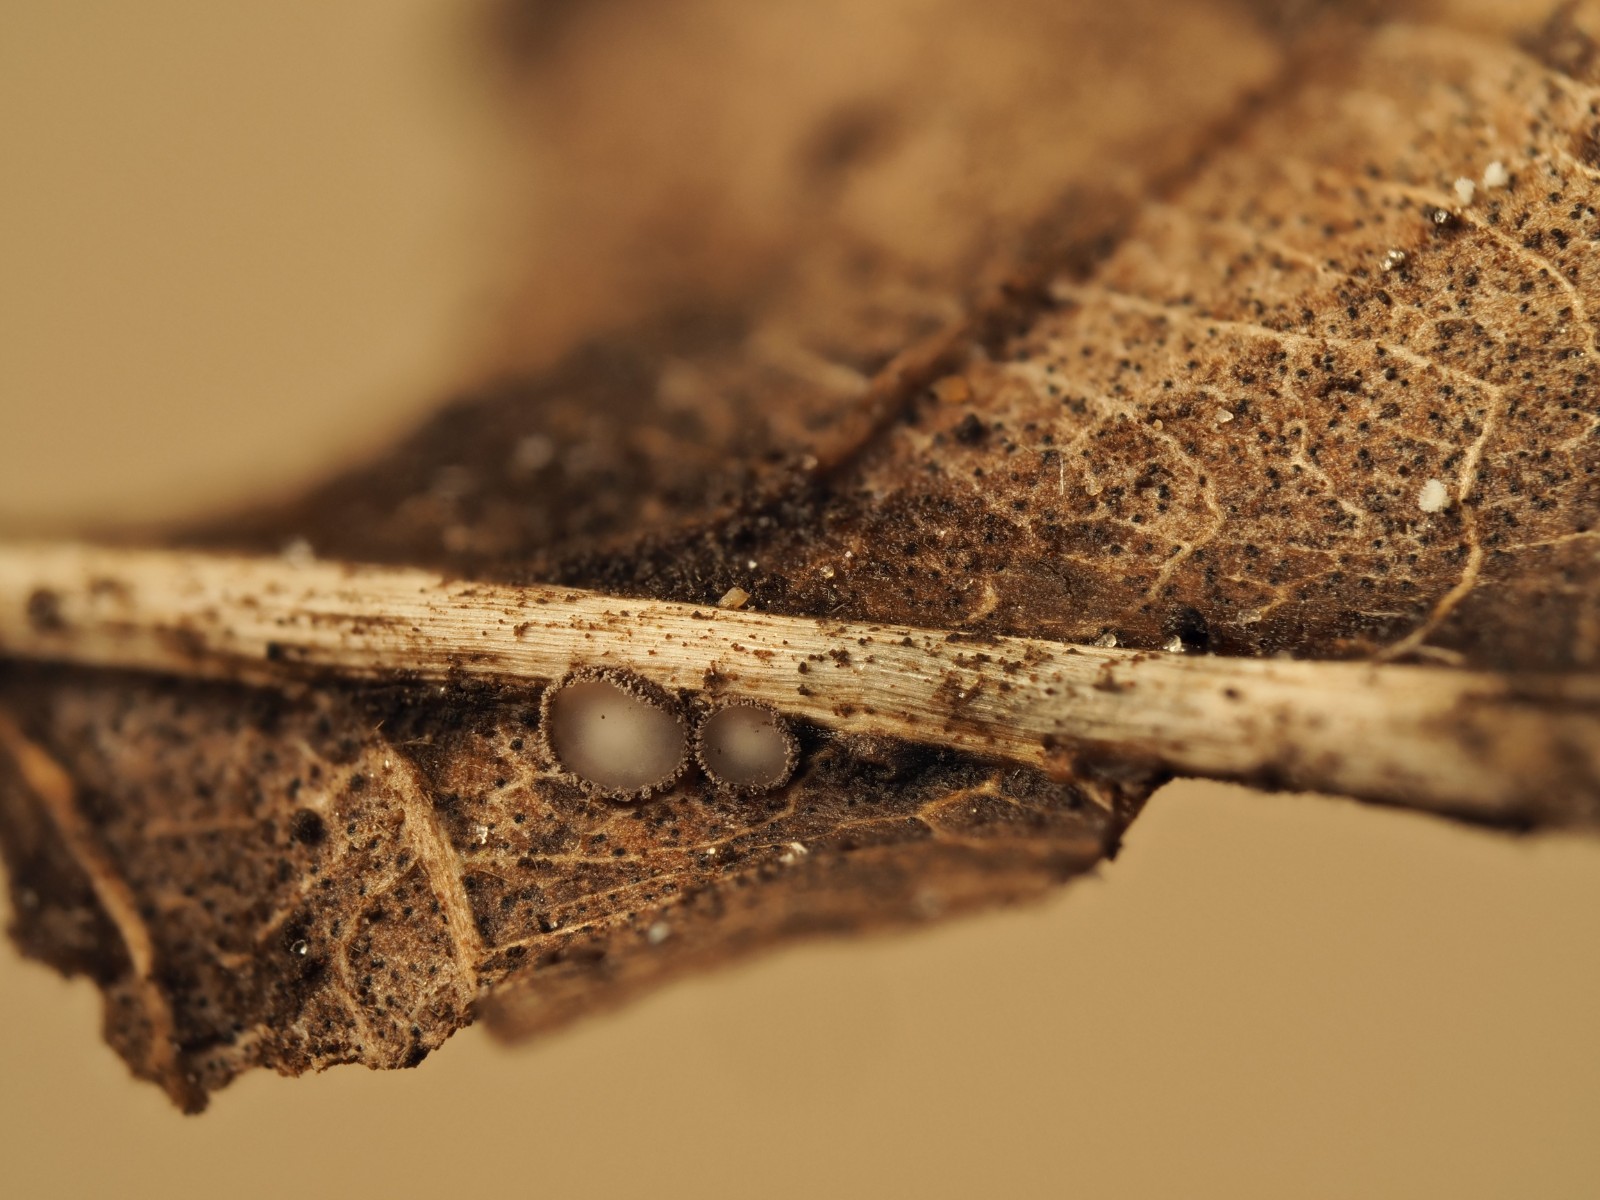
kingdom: Fungi
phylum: Ascomycota
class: Leotiomycetes
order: Helotiales
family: Lachnaceae
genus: Brunnipila
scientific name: Brunnipila brunneola
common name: læderbrun frynseskive
